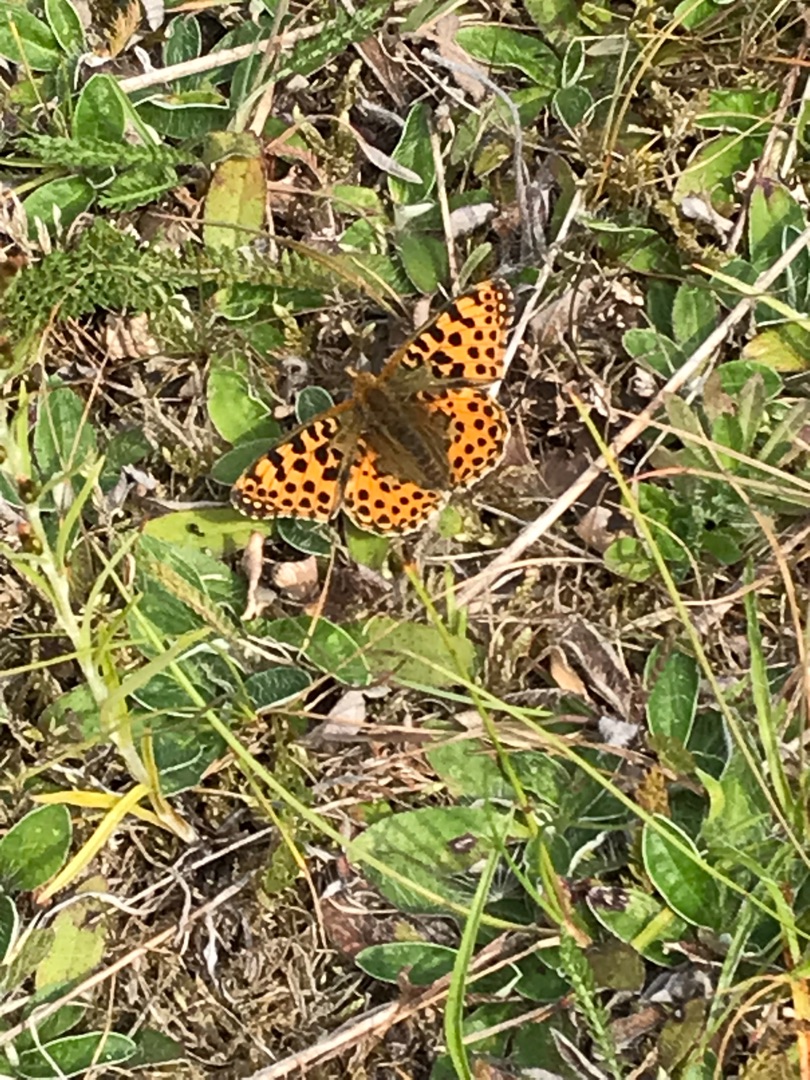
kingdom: Animalia
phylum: Arthropoda
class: Insecta
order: Lepidoptera
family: Nymphalidae
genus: Issoria
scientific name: Issoria lathonia
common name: Storplettet perlemorsommerfugl
